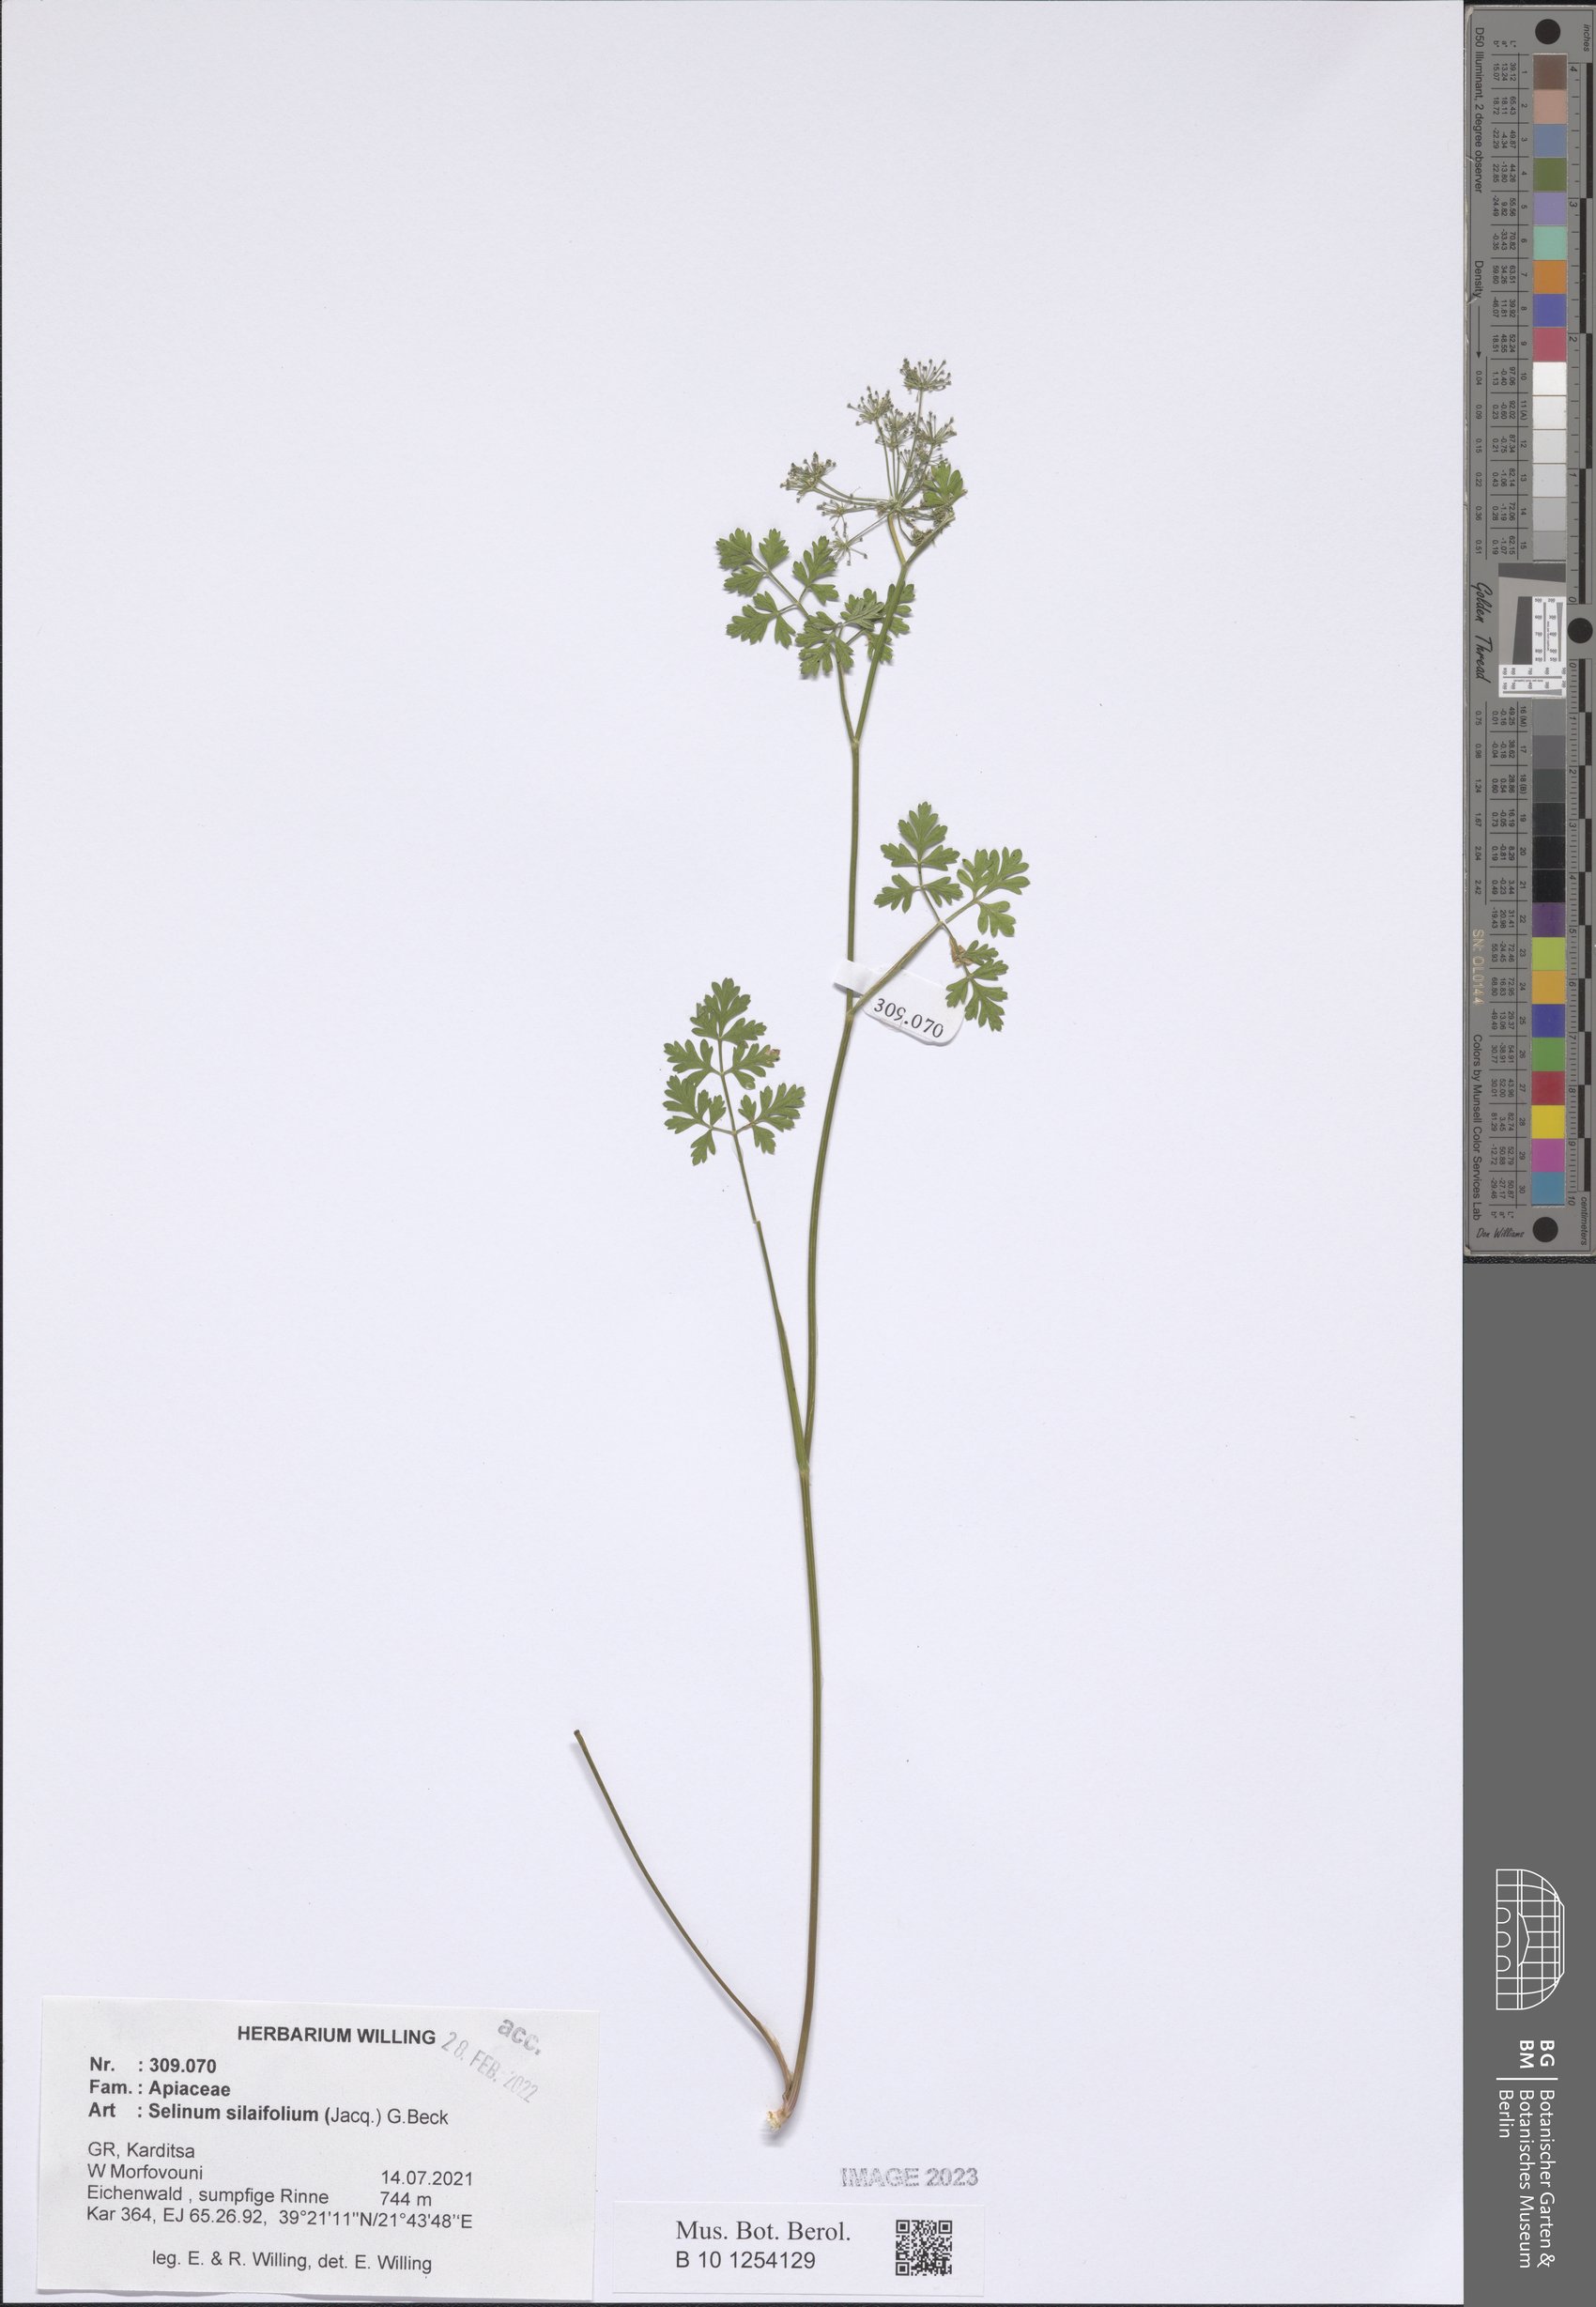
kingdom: Plantae
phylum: Tracheophyta
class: Magnoliopsida
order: Apiales
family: Apiaceae
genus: Katapsuxis
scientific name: Katapsuxis silaifolia
